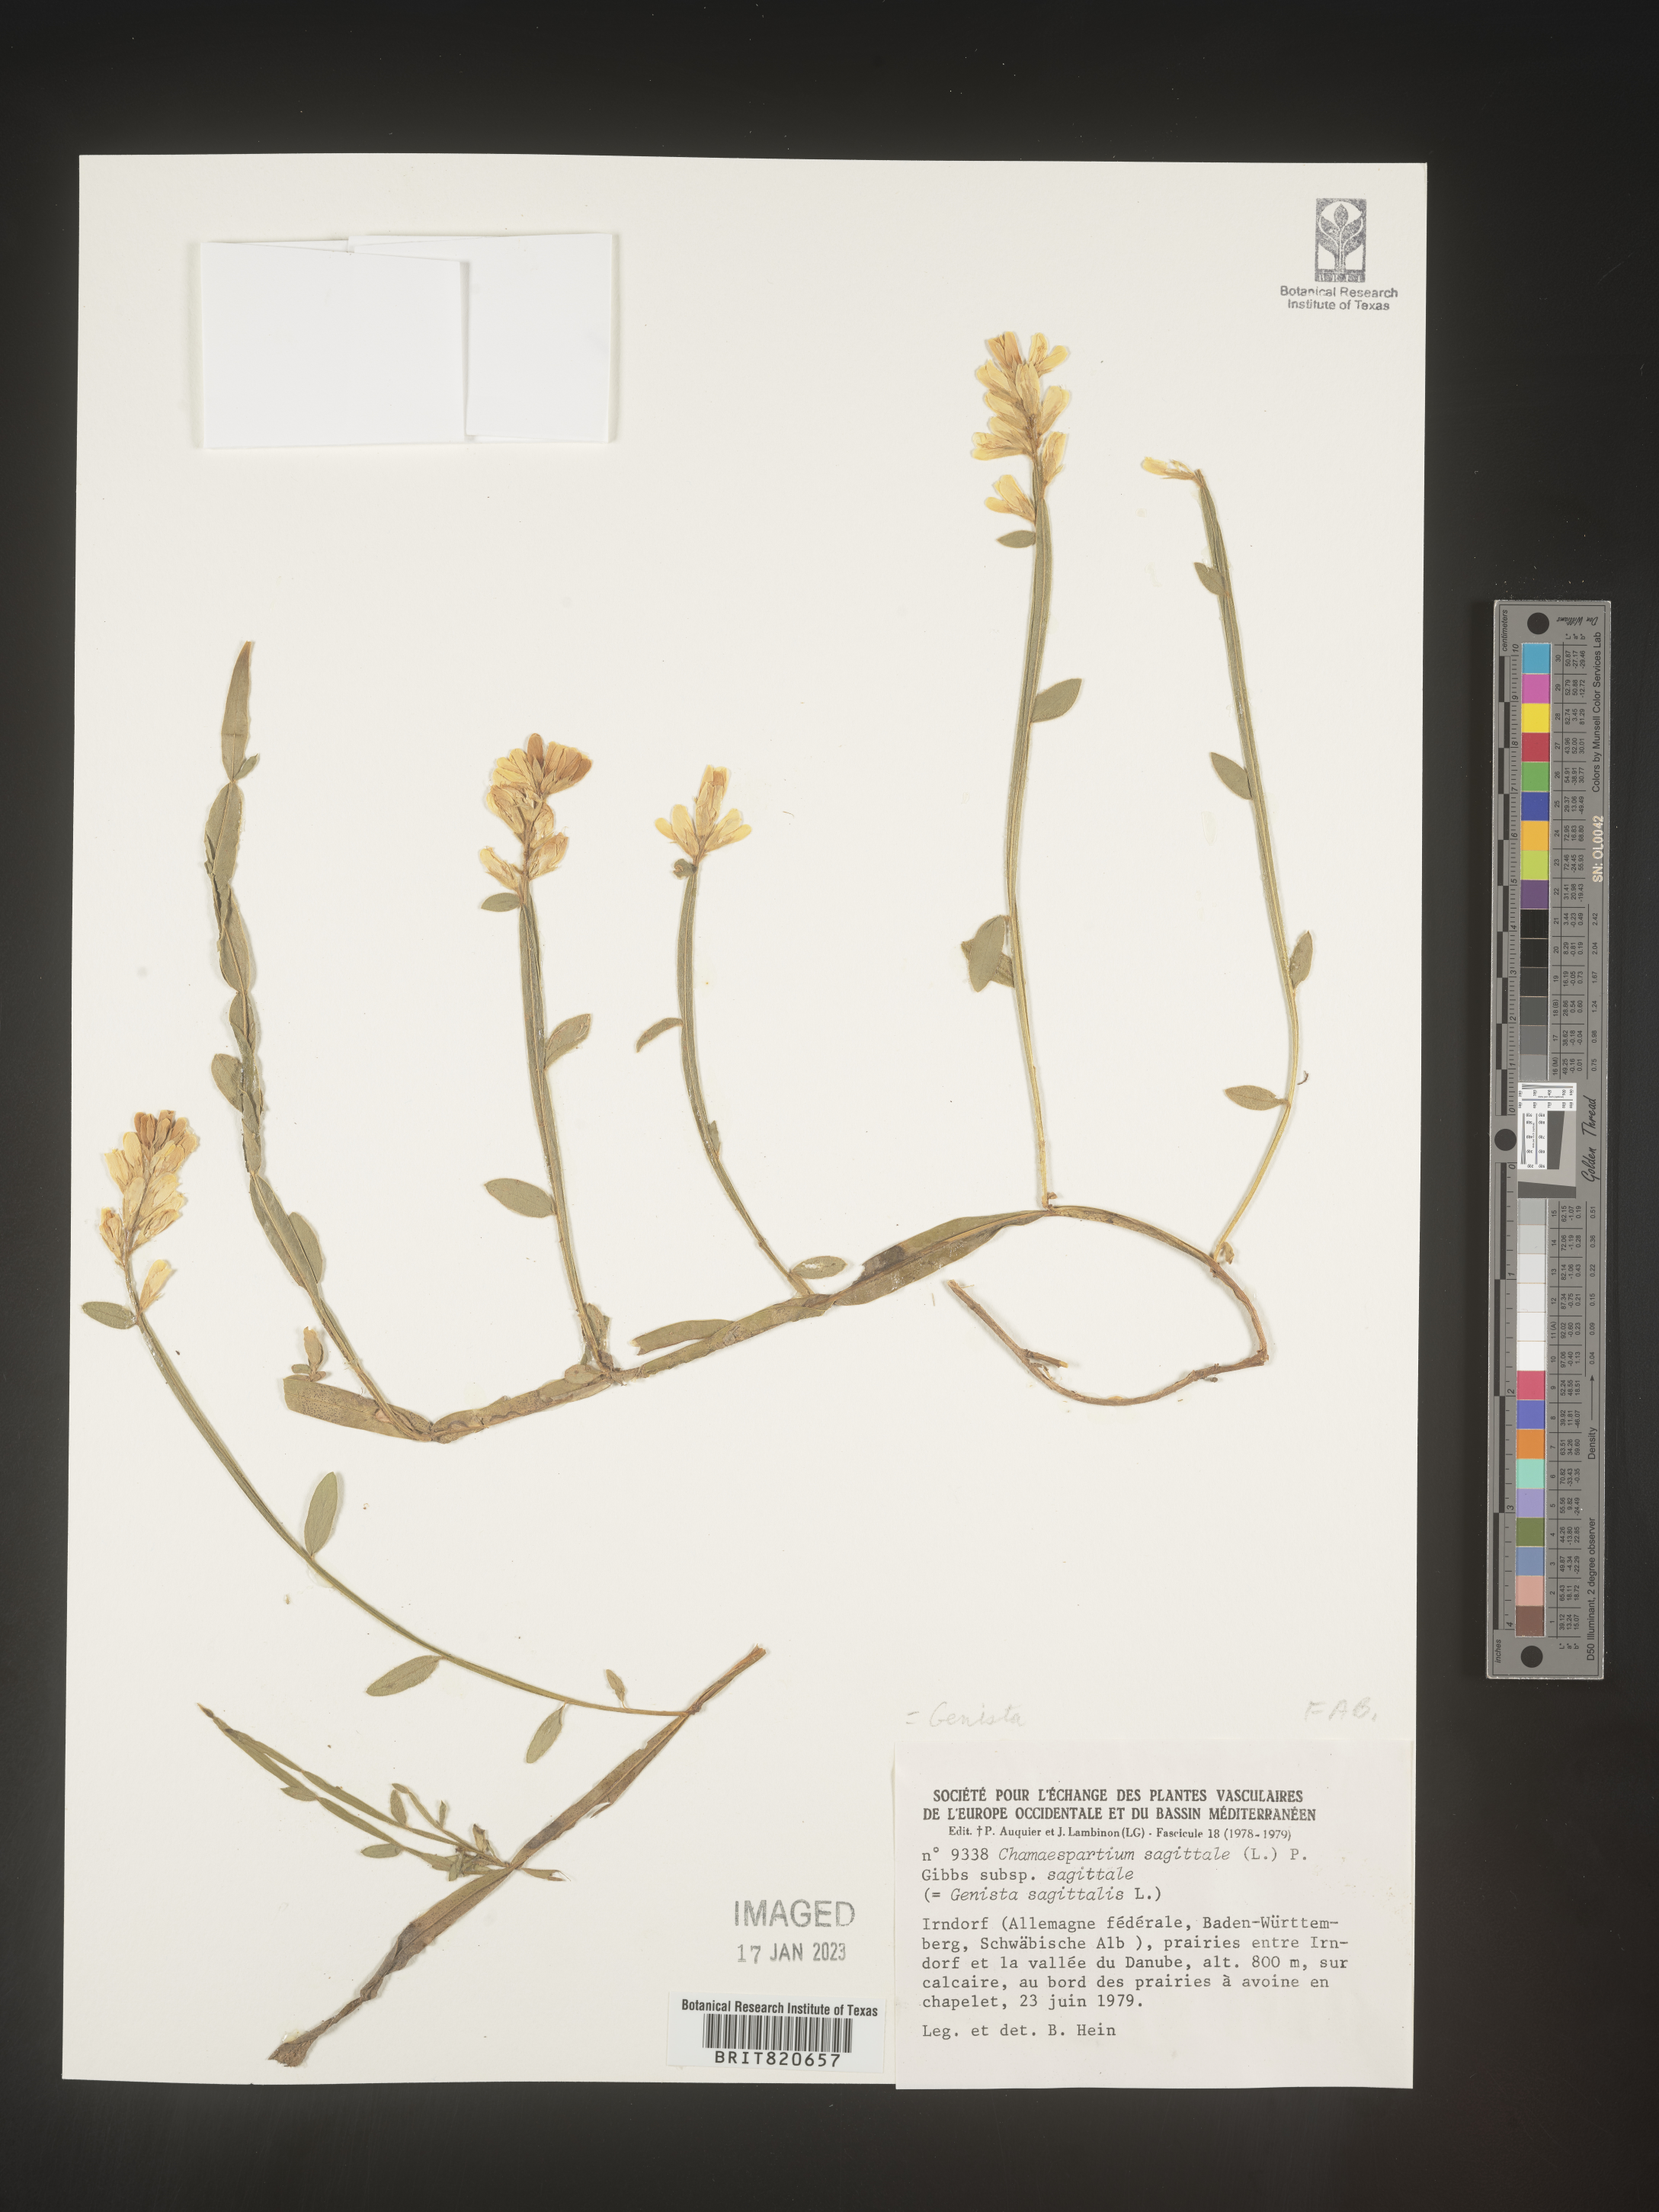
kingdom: Plantae
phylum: Tracheophyta
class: Magnoliopsida
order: Fabales
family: Fabaceae
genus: Genista
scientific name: Genista
